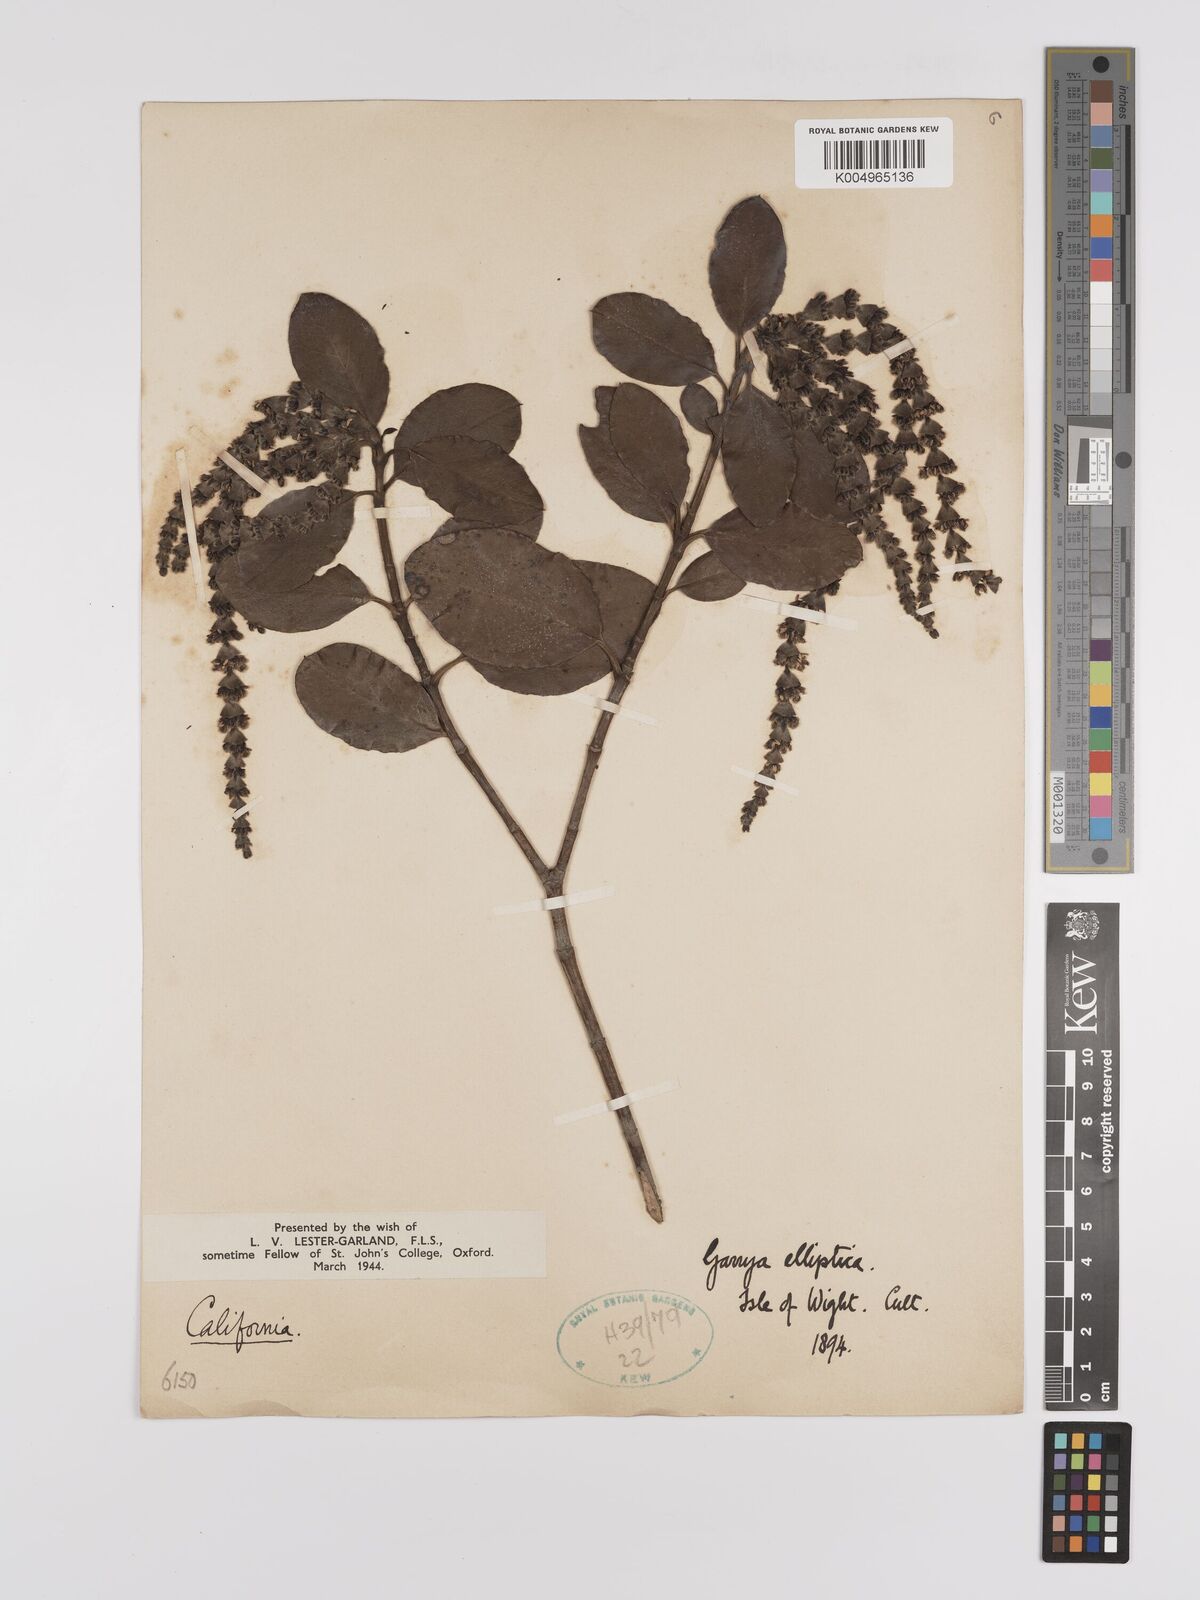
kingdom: Plantae
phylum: Tracheophyta
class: Magnoliopsida
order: Garryales
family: Garryaceae
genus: Garrya
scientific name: Garrya elliptica
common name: Silk-tassel
